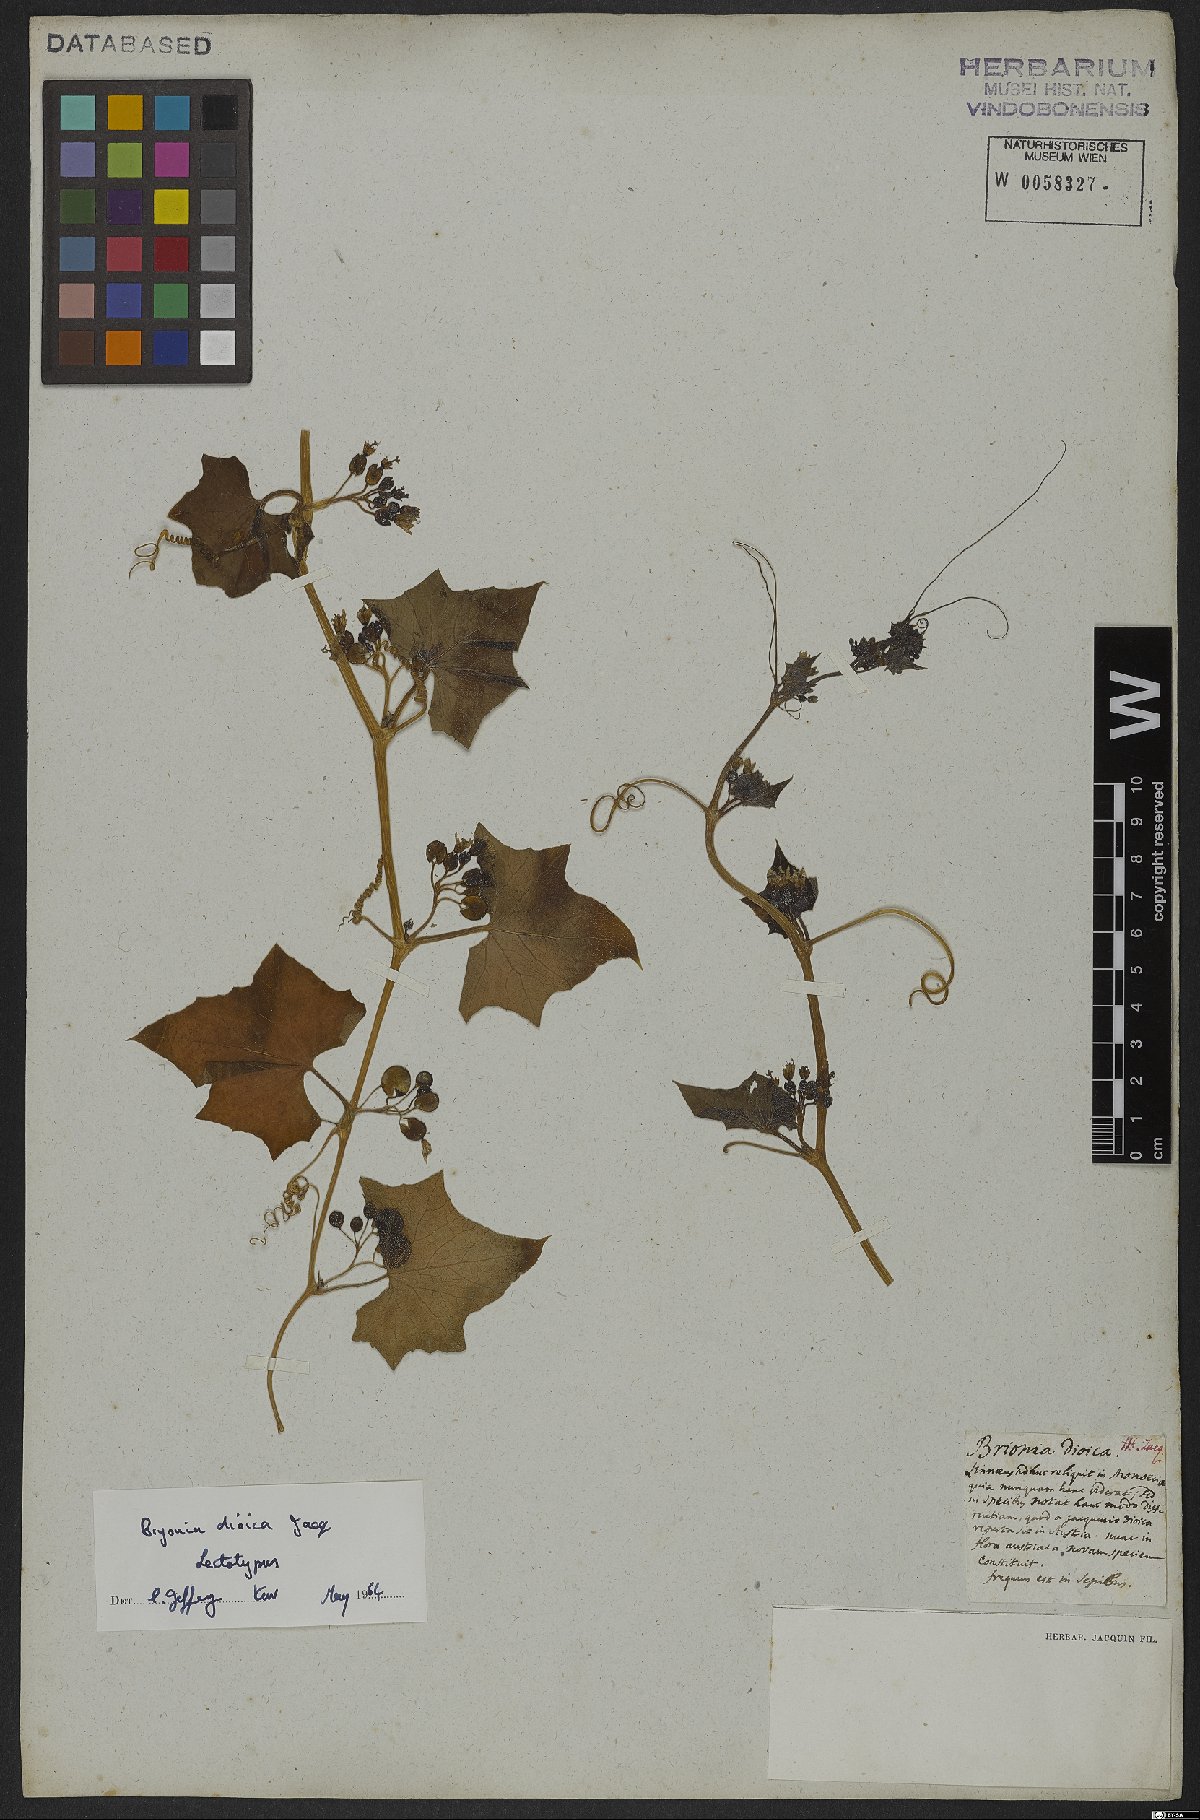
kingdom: Plantae
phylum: Tracheophyta
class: Magnoliopsida
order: Cucurbitales
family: Cucurbitaceae
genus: Bryonia
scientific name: Bryonia dioica
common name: White bryony
